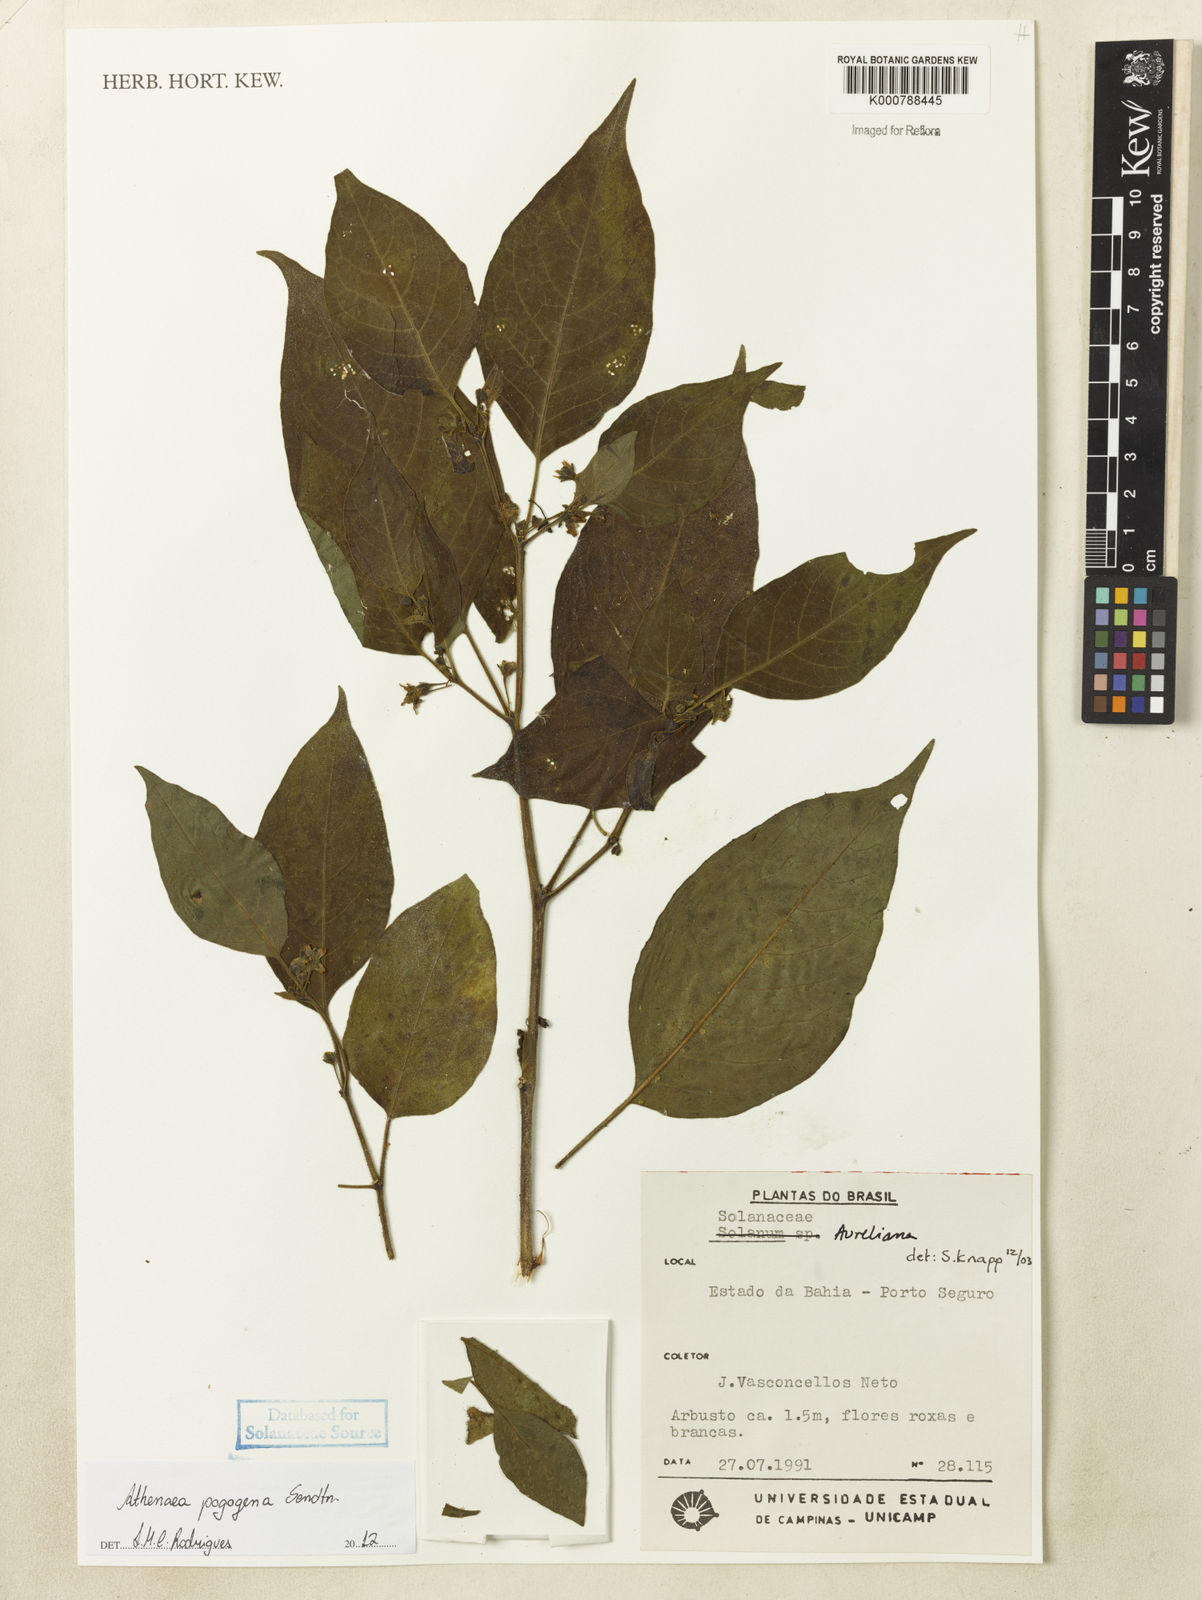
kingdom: Plantae
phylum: Tracheophyta
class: Magnoliopsida
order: Solanales
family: Solanaceae
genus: Athenaea
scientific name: Athenaea pogogena
